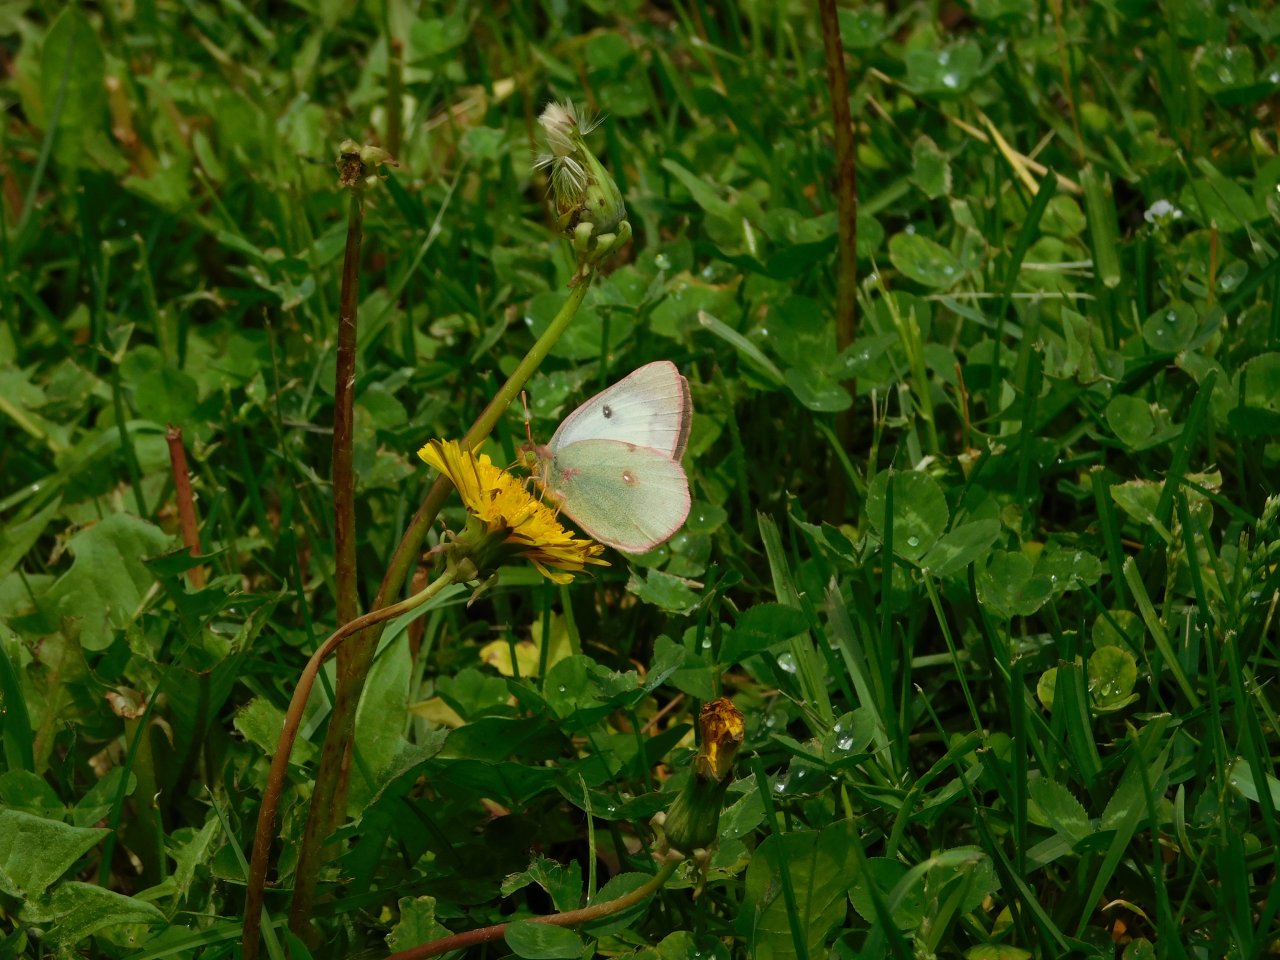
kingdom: Animalia
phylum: Arthropoda
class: Insecta
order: Lepidoptera
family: Pieridae
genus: Colias
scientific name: Colias philodice
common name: Clouded Sulphur
